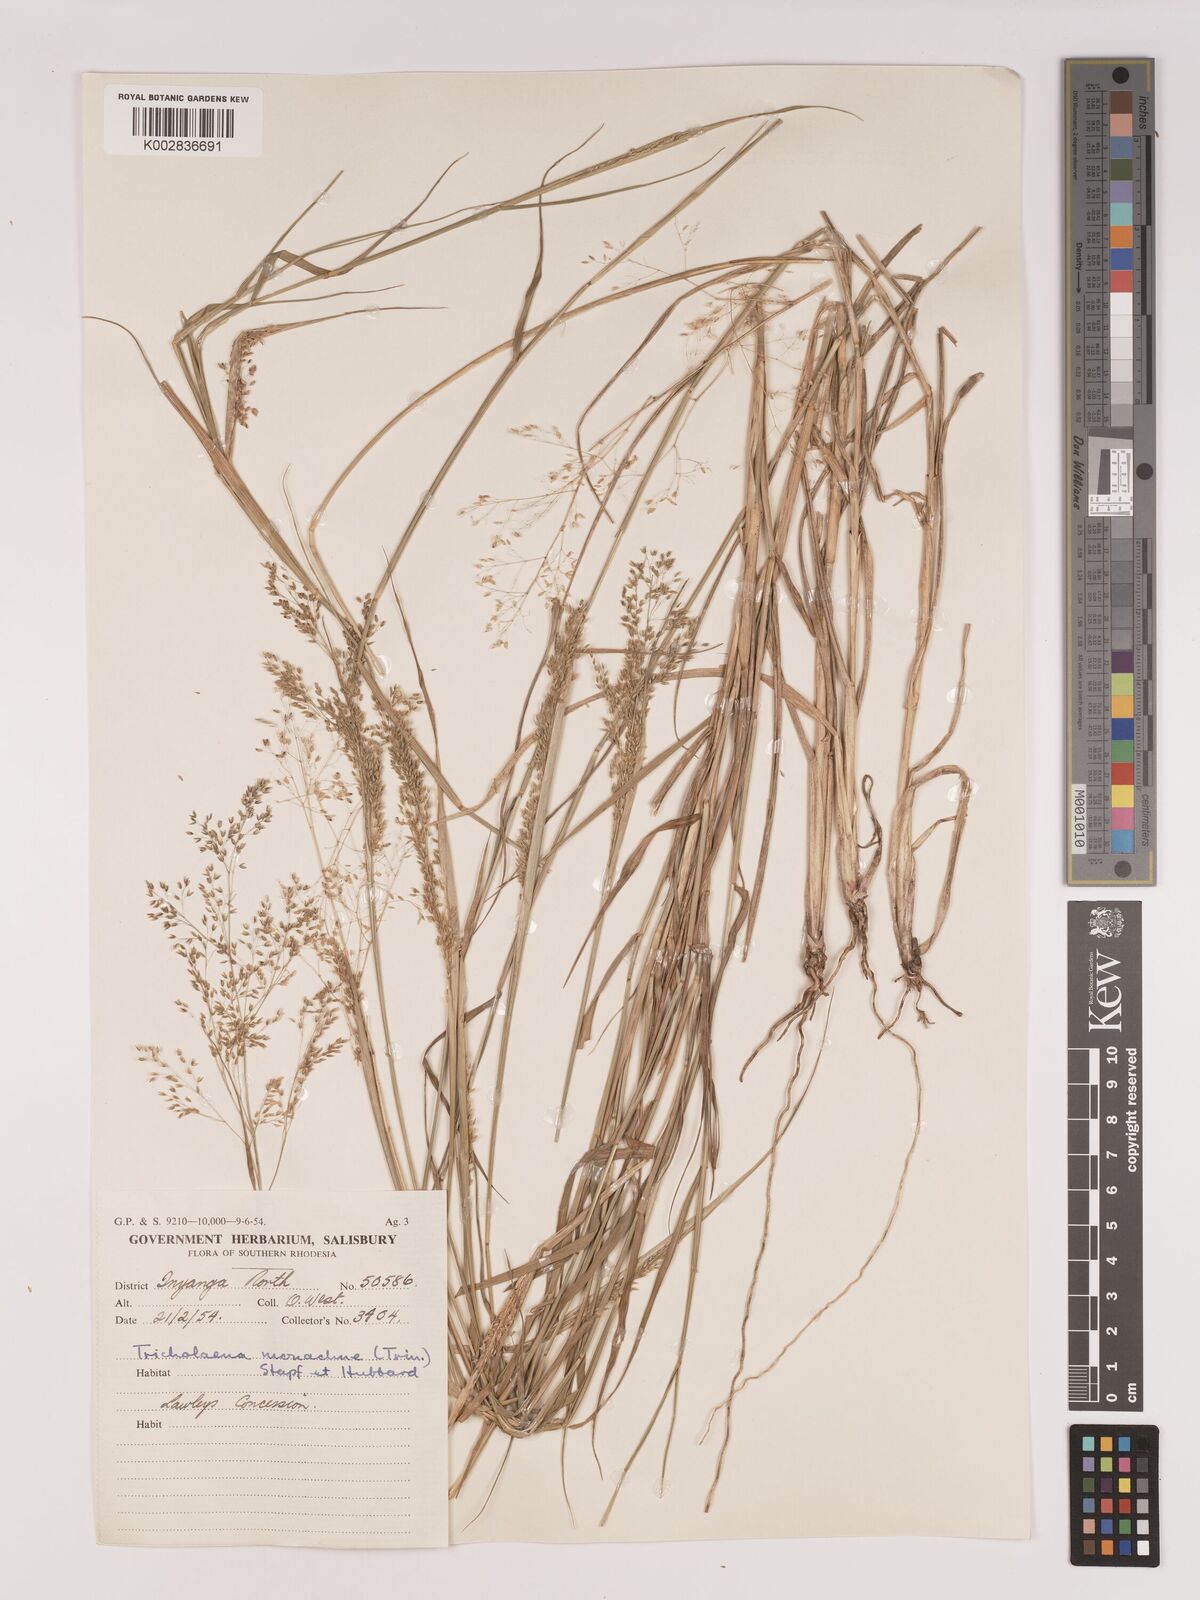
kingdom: Plantae
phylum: Tracheophyta
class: Liliopsida
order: Poales
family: Poaceae
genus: Tricholaena
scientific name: Tricholaena monachne
